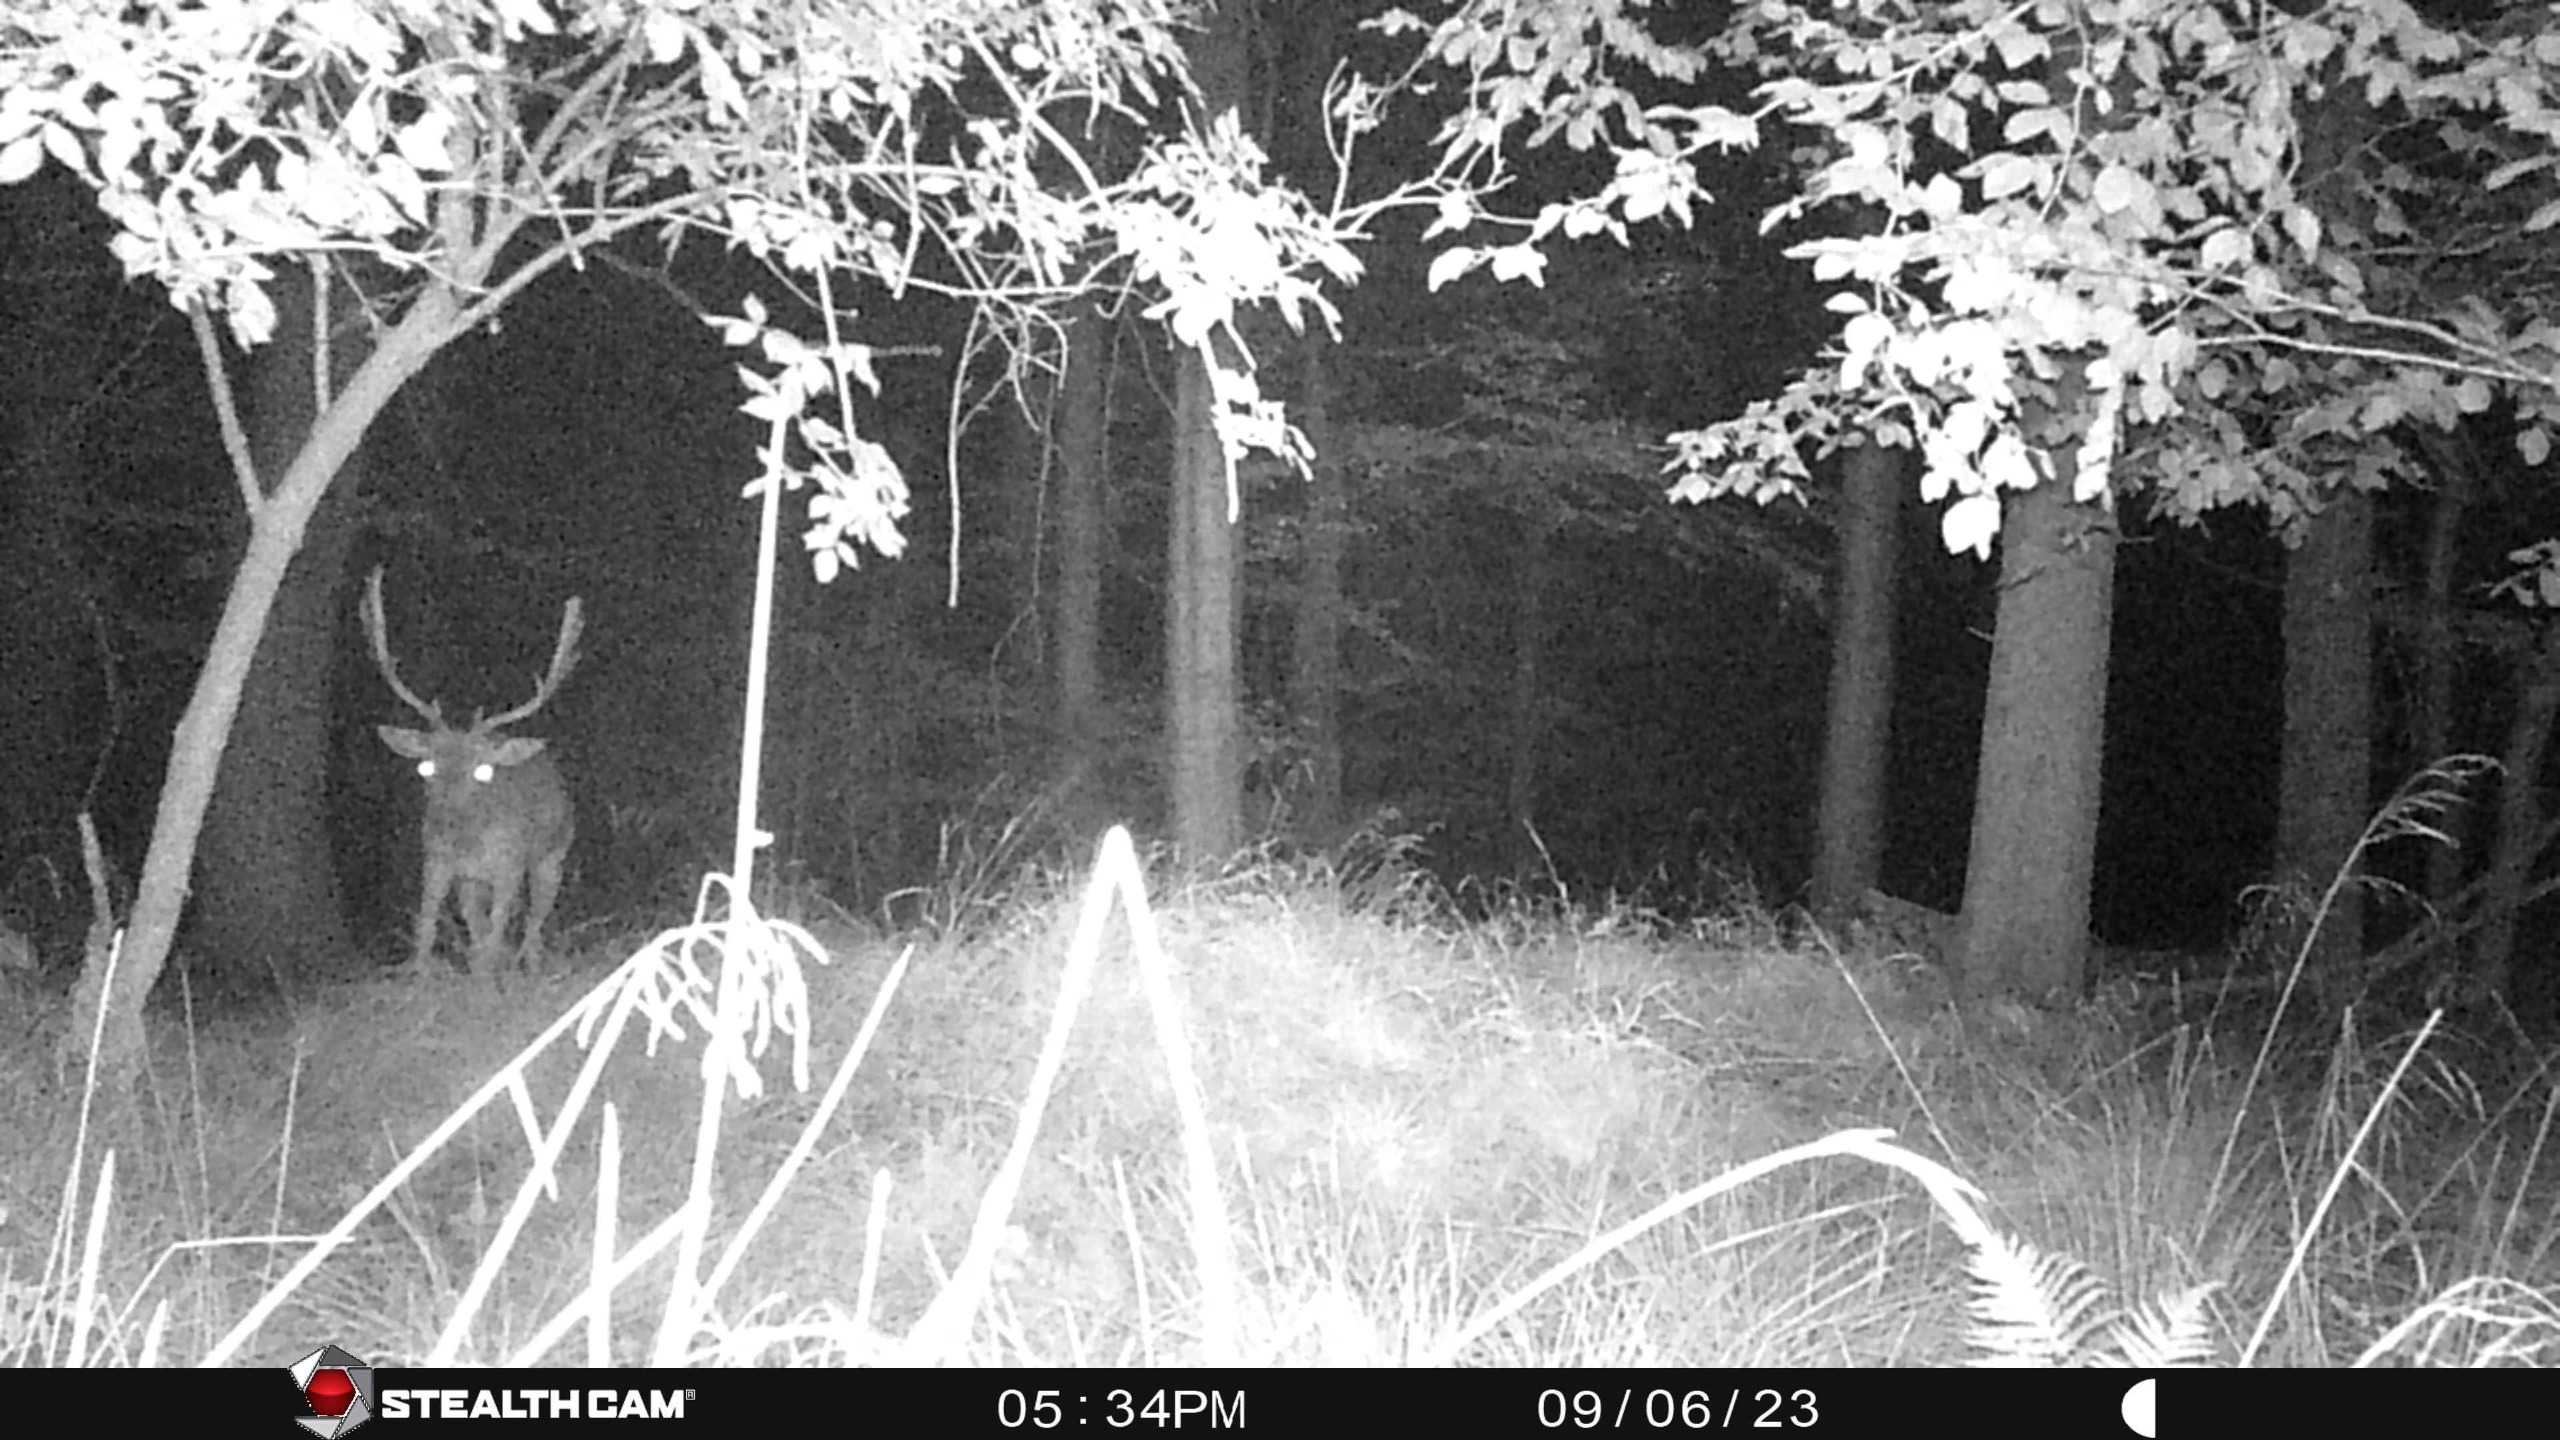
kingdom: Animalia
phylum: Chordata
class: Mammalia
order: Artiodactyla
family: Cervidae
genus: Dama
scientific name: Dama dama
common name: Dådyr
